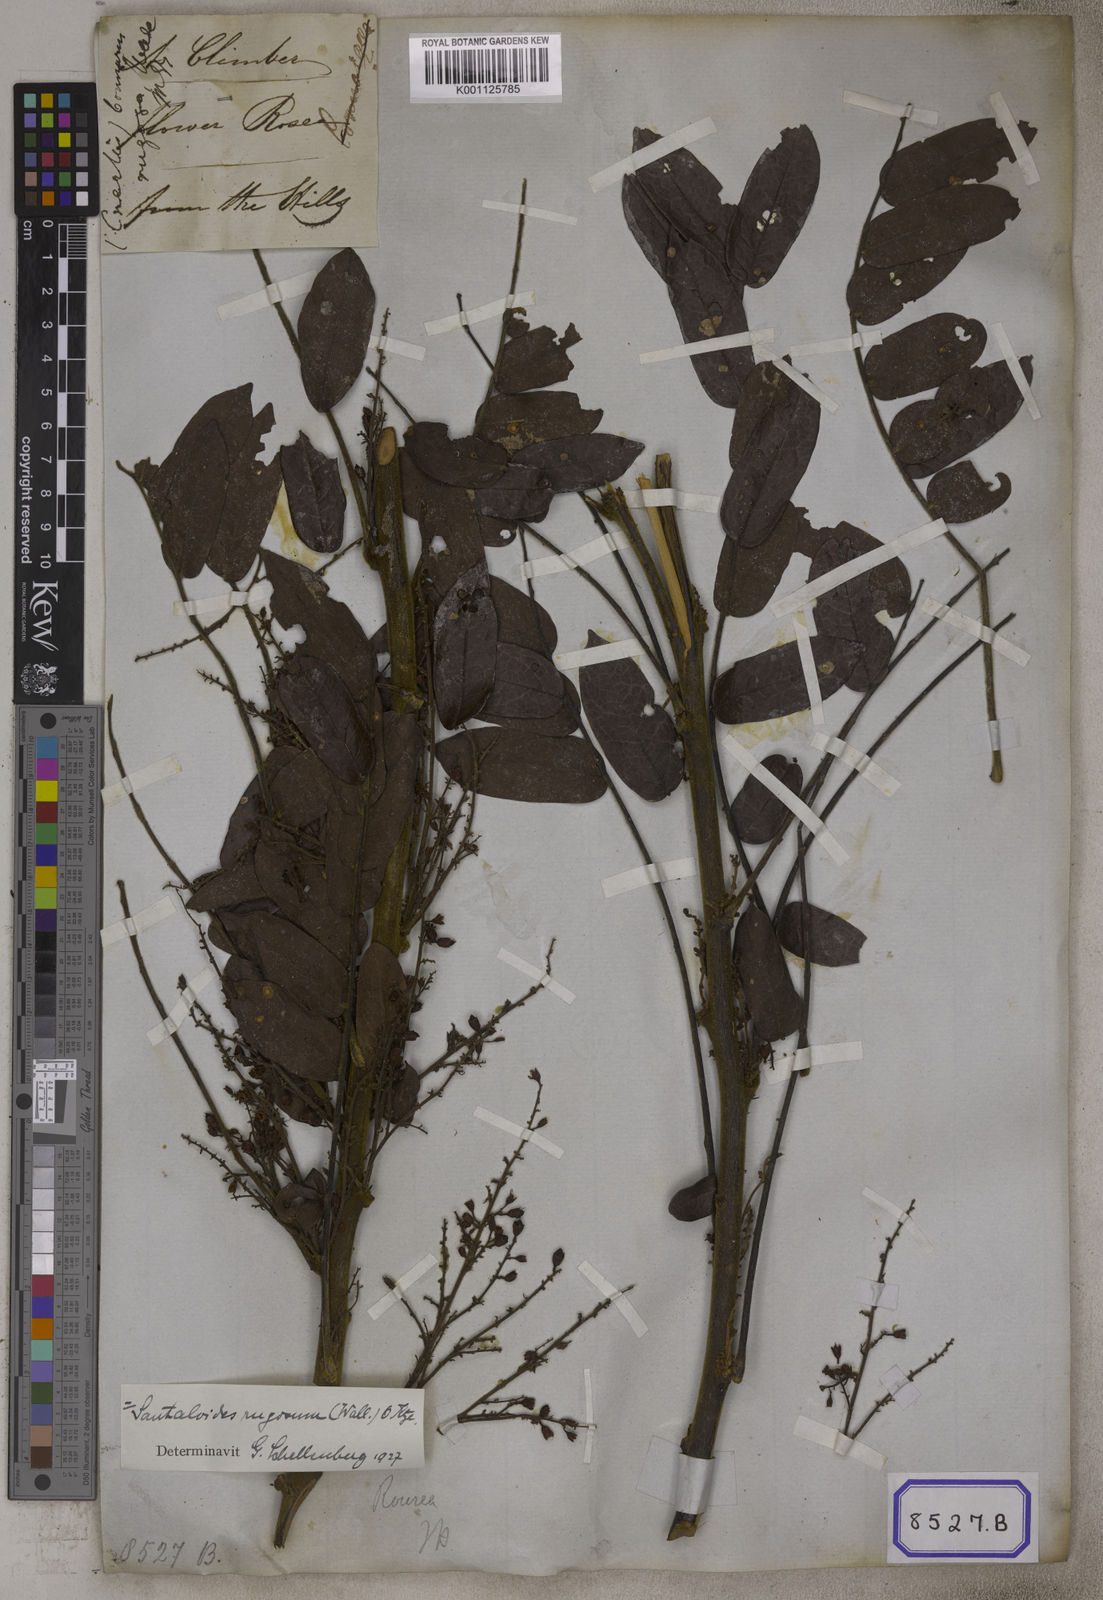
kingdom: Plantae
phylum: Tracheophyta
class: Magnoliopsida
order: Oxalidales
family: Connaraceae
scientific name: Connaraceae
